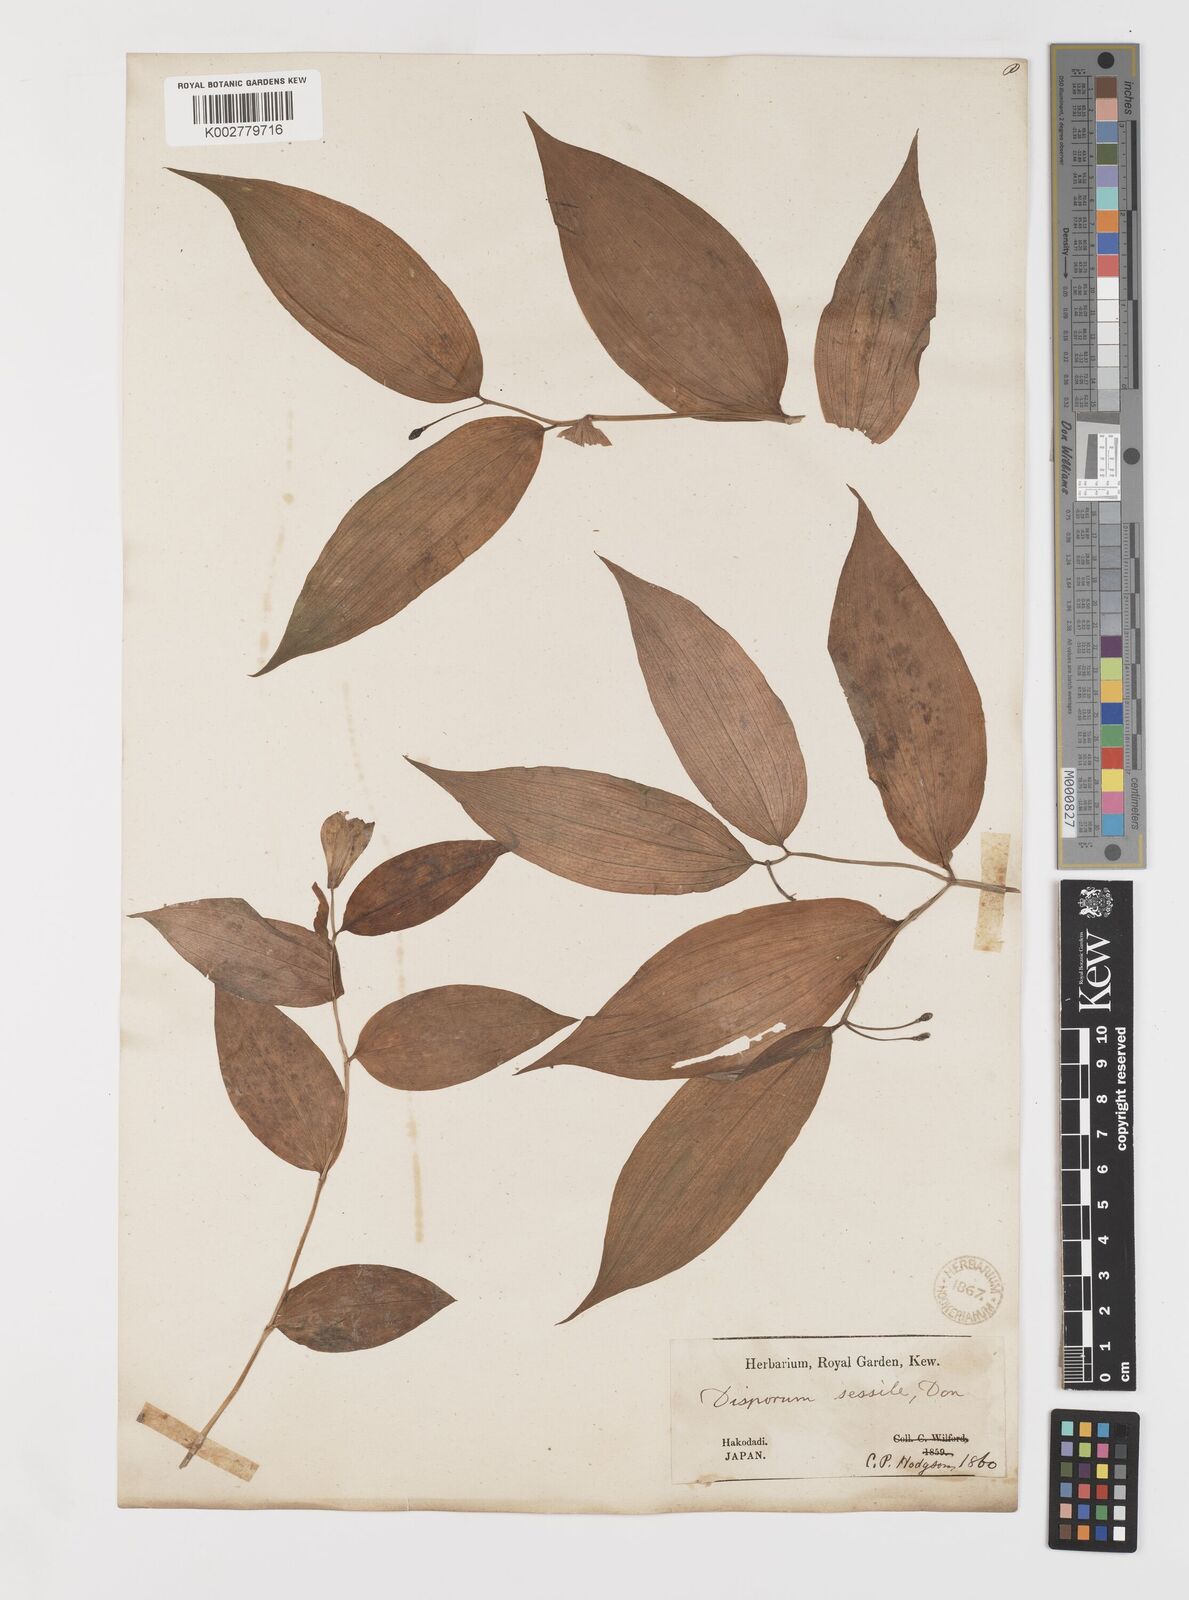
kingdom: Plantae
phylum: Tracheophyta
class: Liliopsida
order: Liliales
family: Colchicaceae
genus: Disporum
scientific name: Disporum sessile
